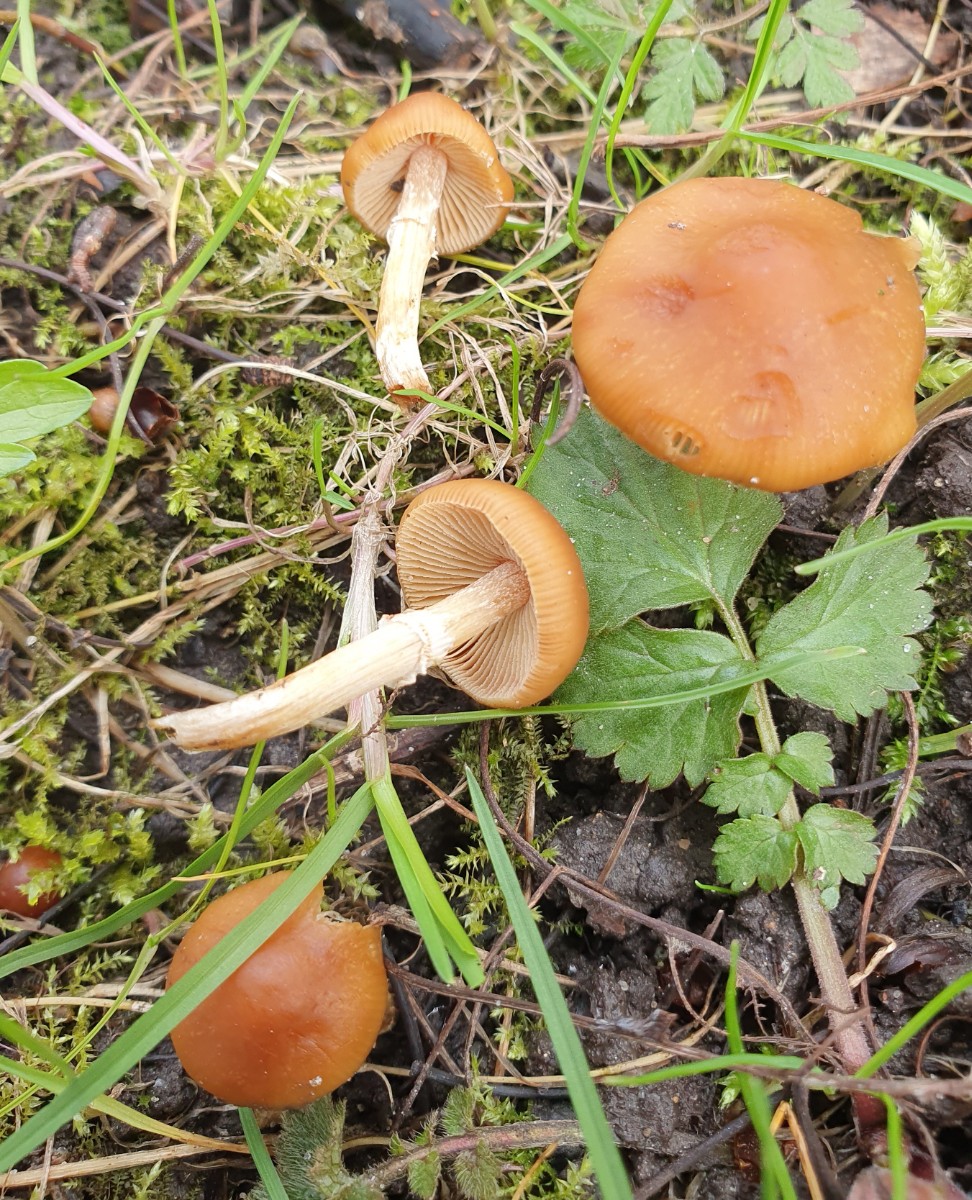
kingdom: Fungi
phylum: Basidiomycota
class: Agaricomycetes
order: Agaricales
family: Bolbitiaceae
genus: Conocybe
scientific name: Conocybe aporos
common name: tidlig dansehat
